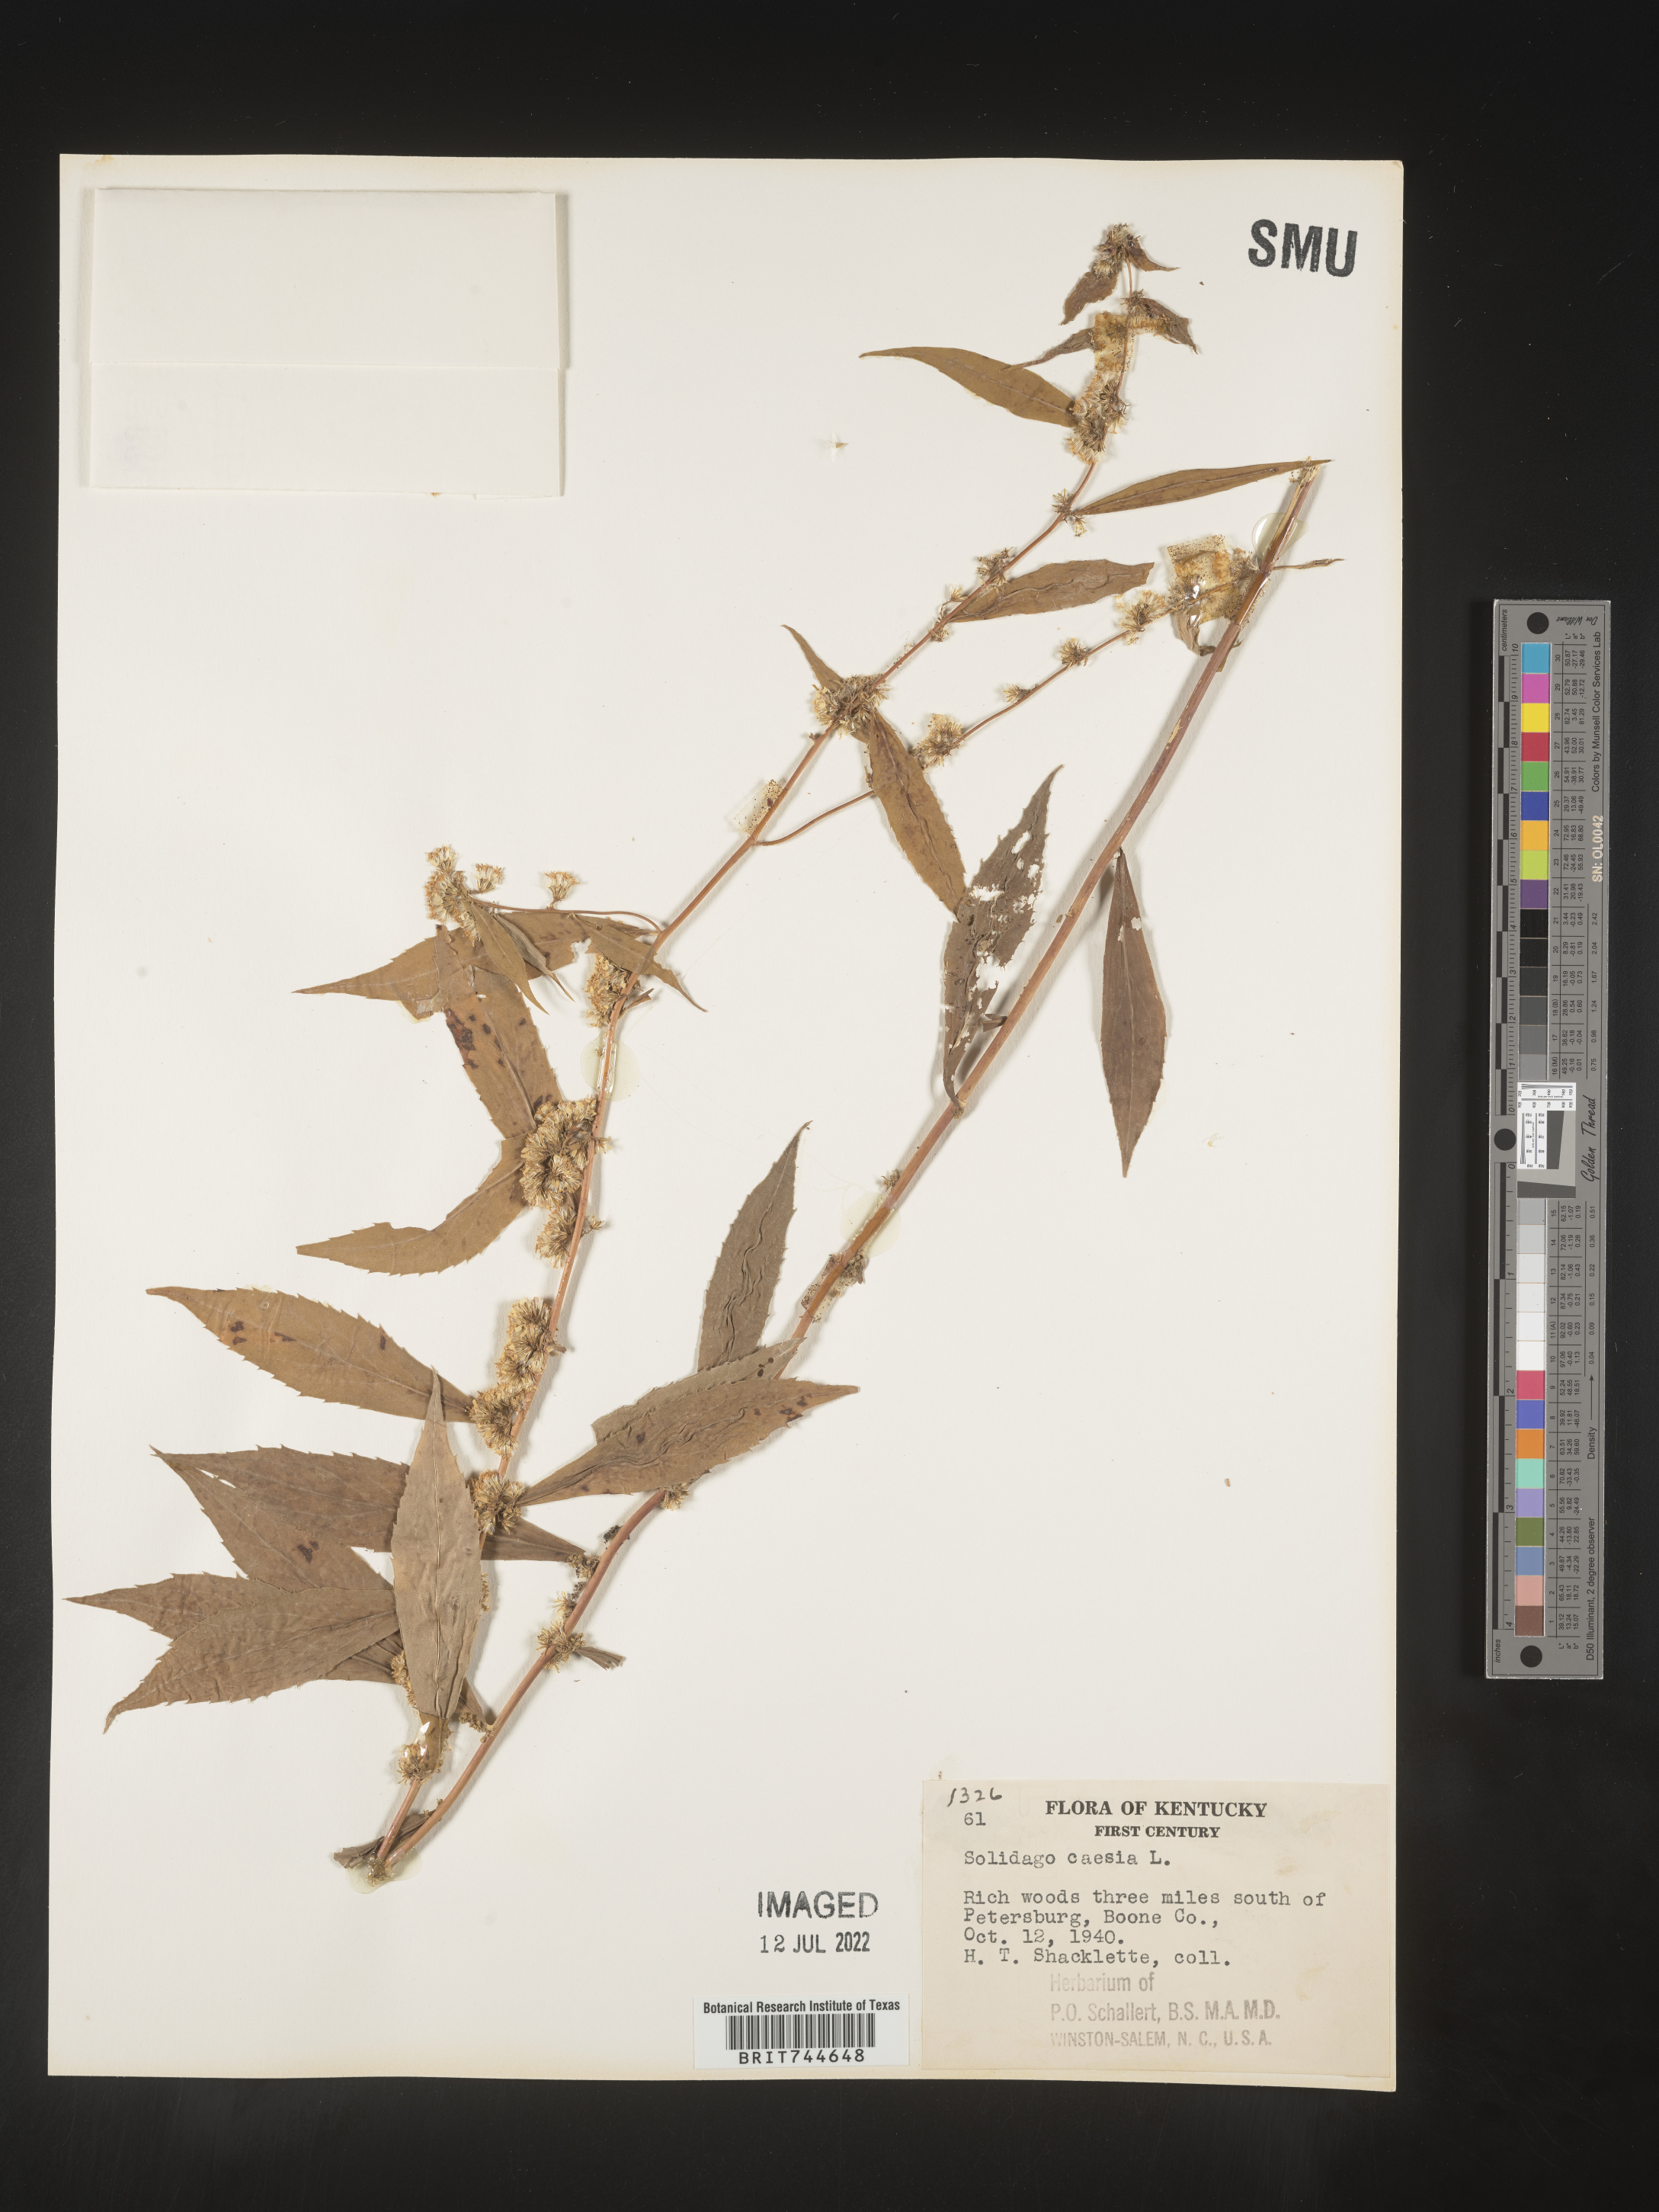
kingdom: Plantae
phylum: Tracheophyta
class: Magnoliopsida
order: Asterales
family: Asteraceae
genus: Solidago
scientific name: Solidago caesia
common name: Woodland goldenrod
